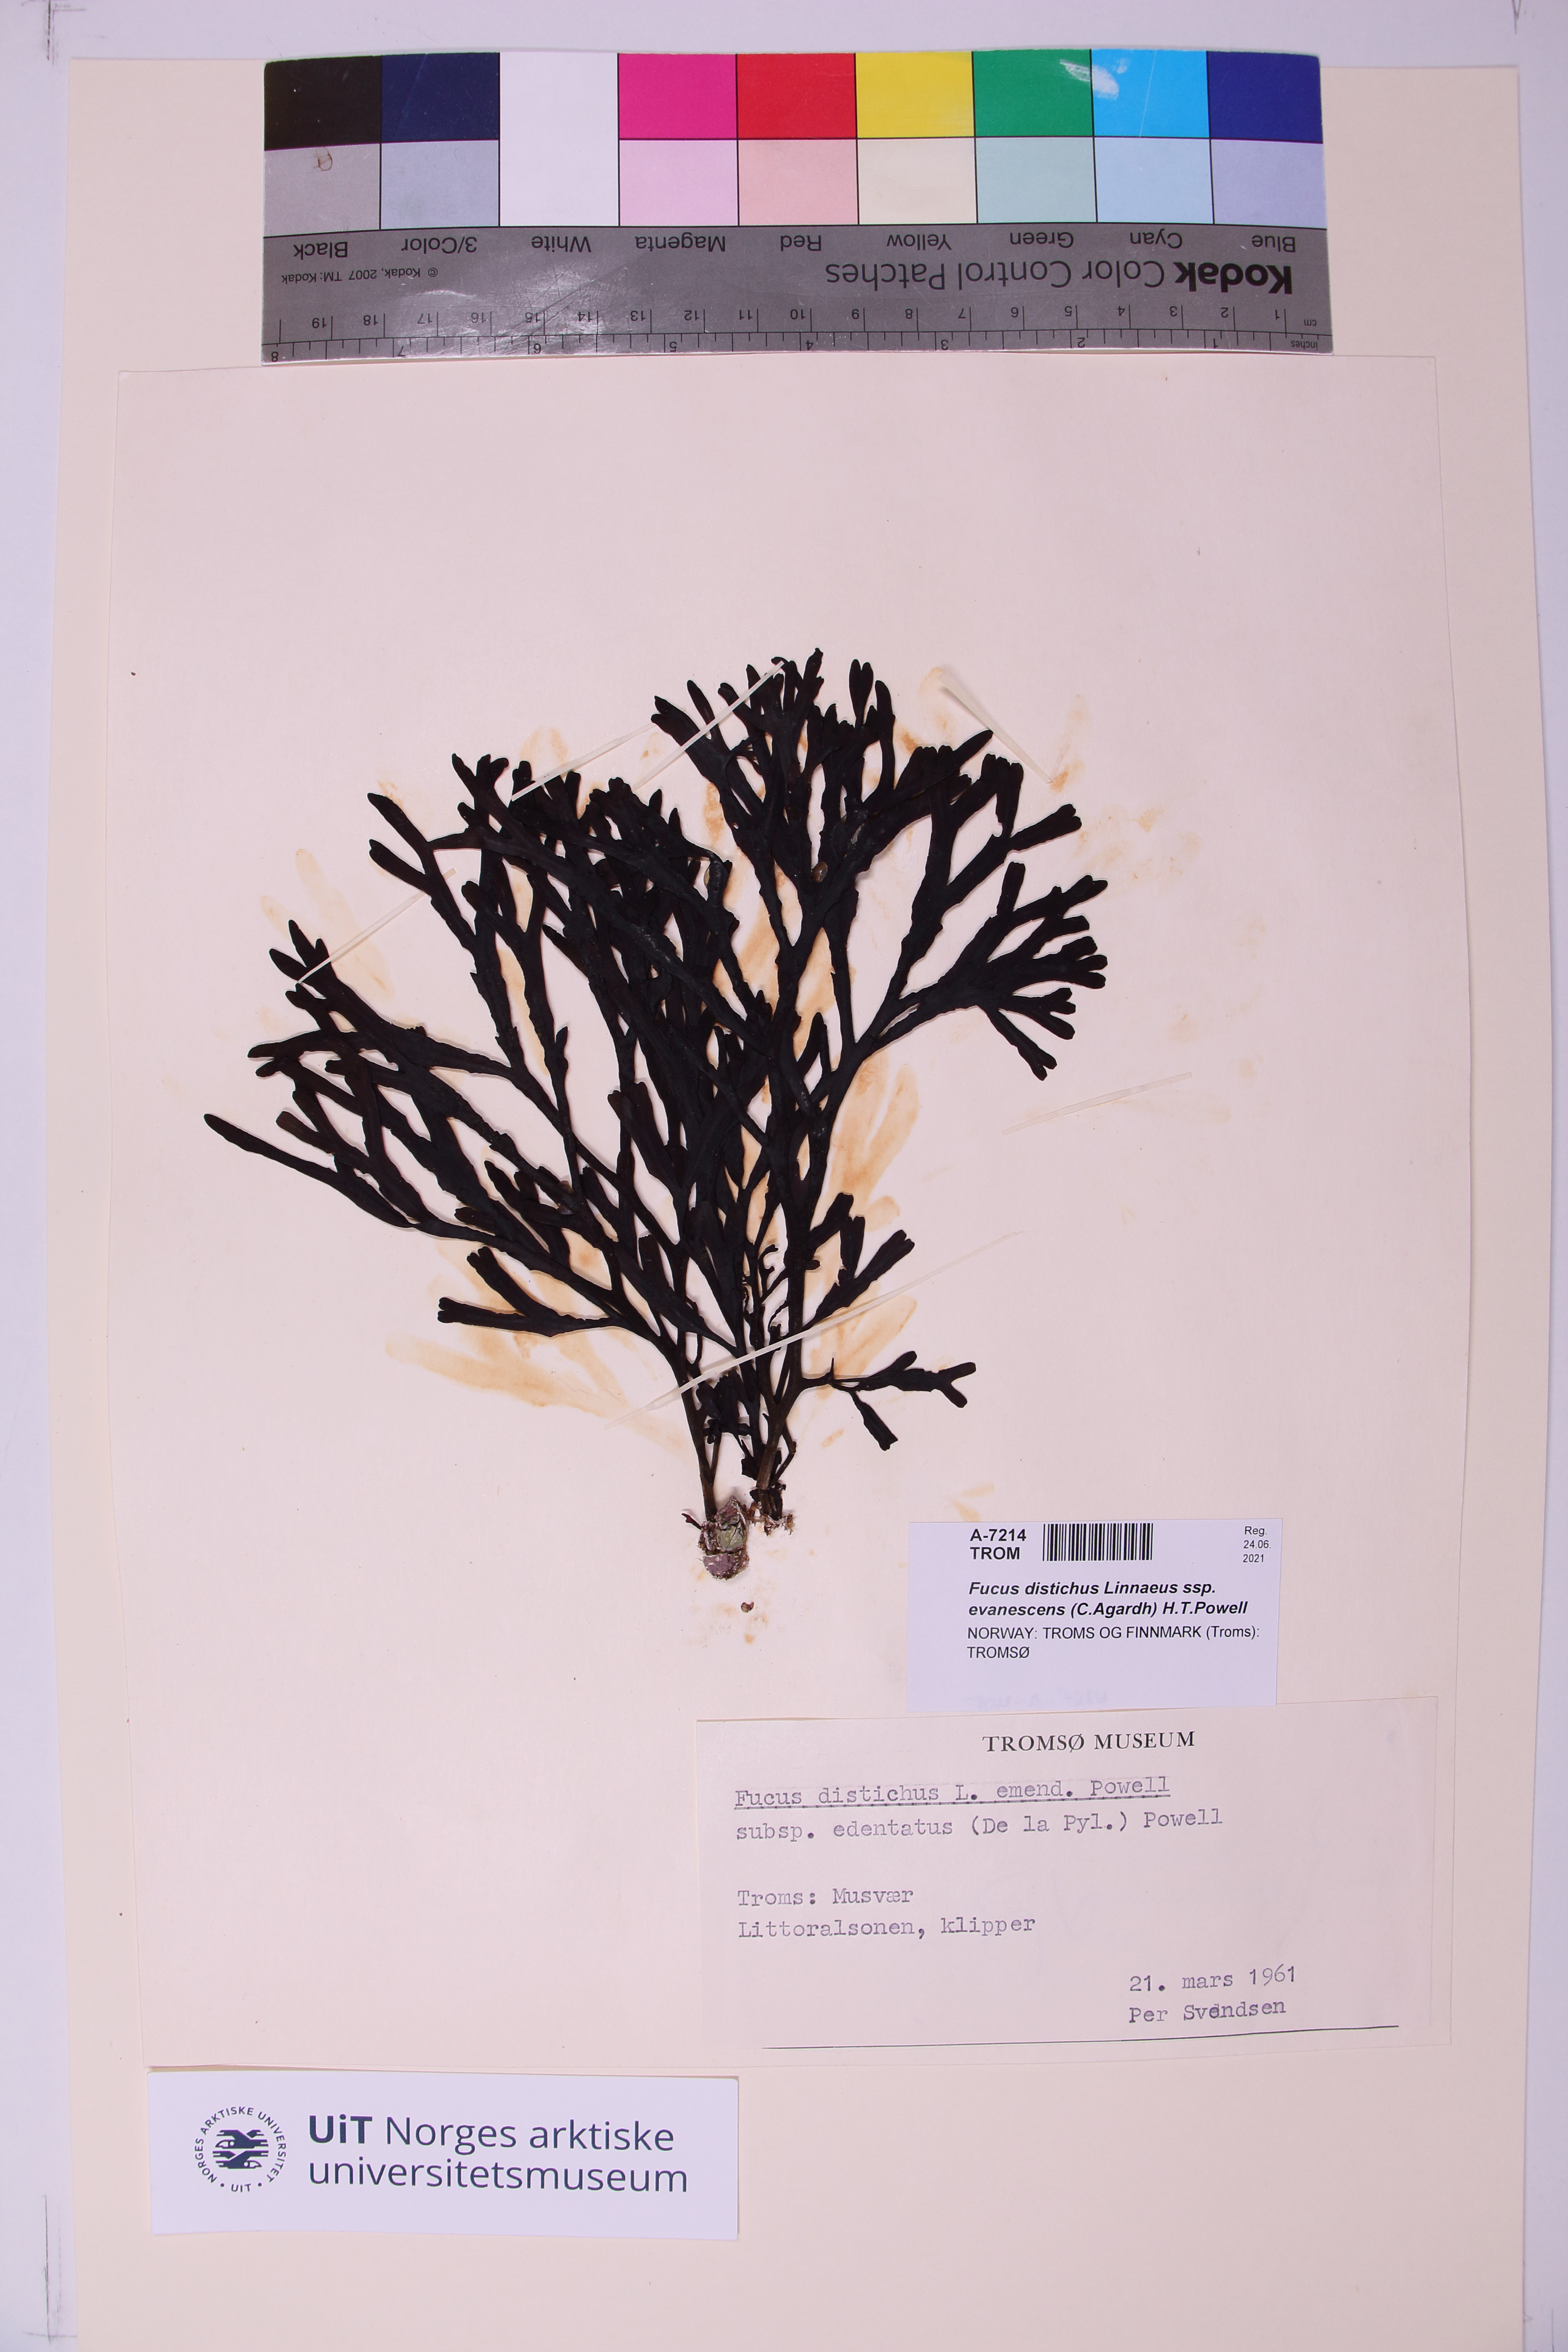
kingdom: Chromista
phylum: Ochrophyta
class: Phaeophyceae
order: Fucales
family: Fucaceae
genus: Fucus
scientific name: Fucus evanescens
